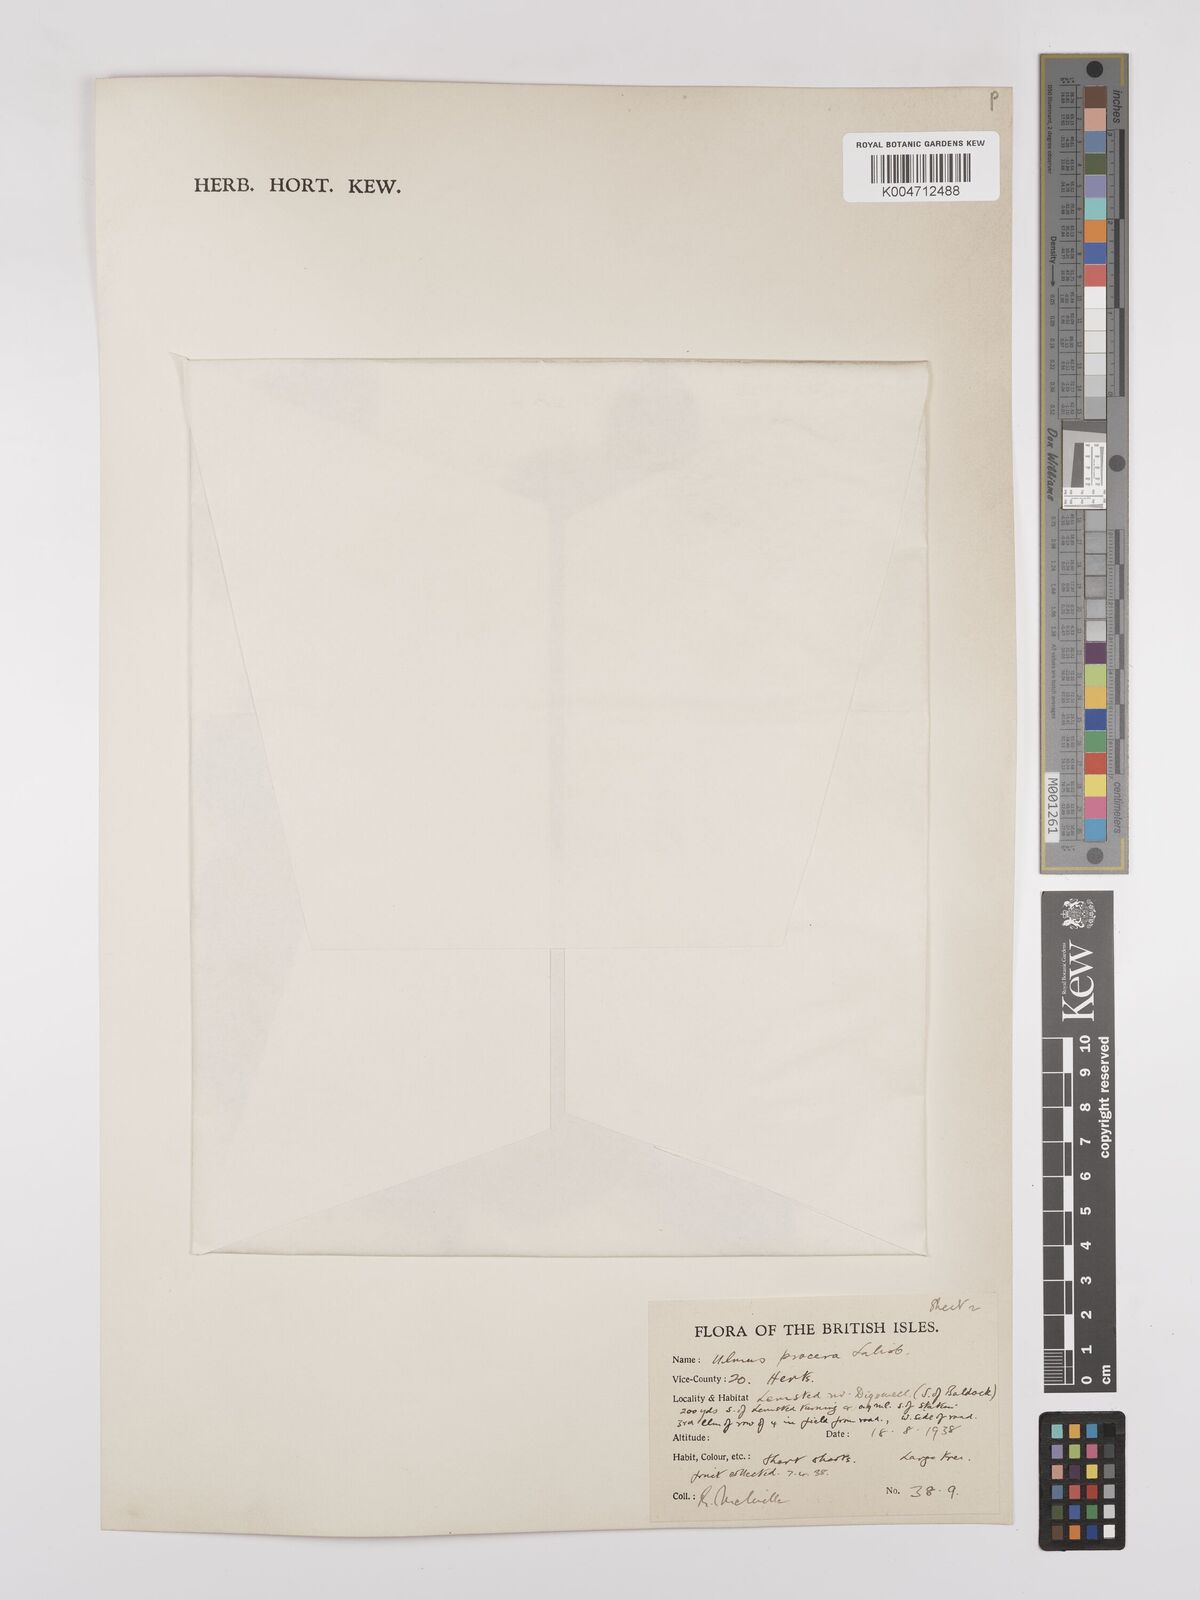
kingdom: Plantae
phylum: Tracheophyta
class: Magnoliopsida
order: Rosales
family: Ulmaceae
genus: Ulmus
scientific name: Ulmus minor
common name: Small-leaved elm
